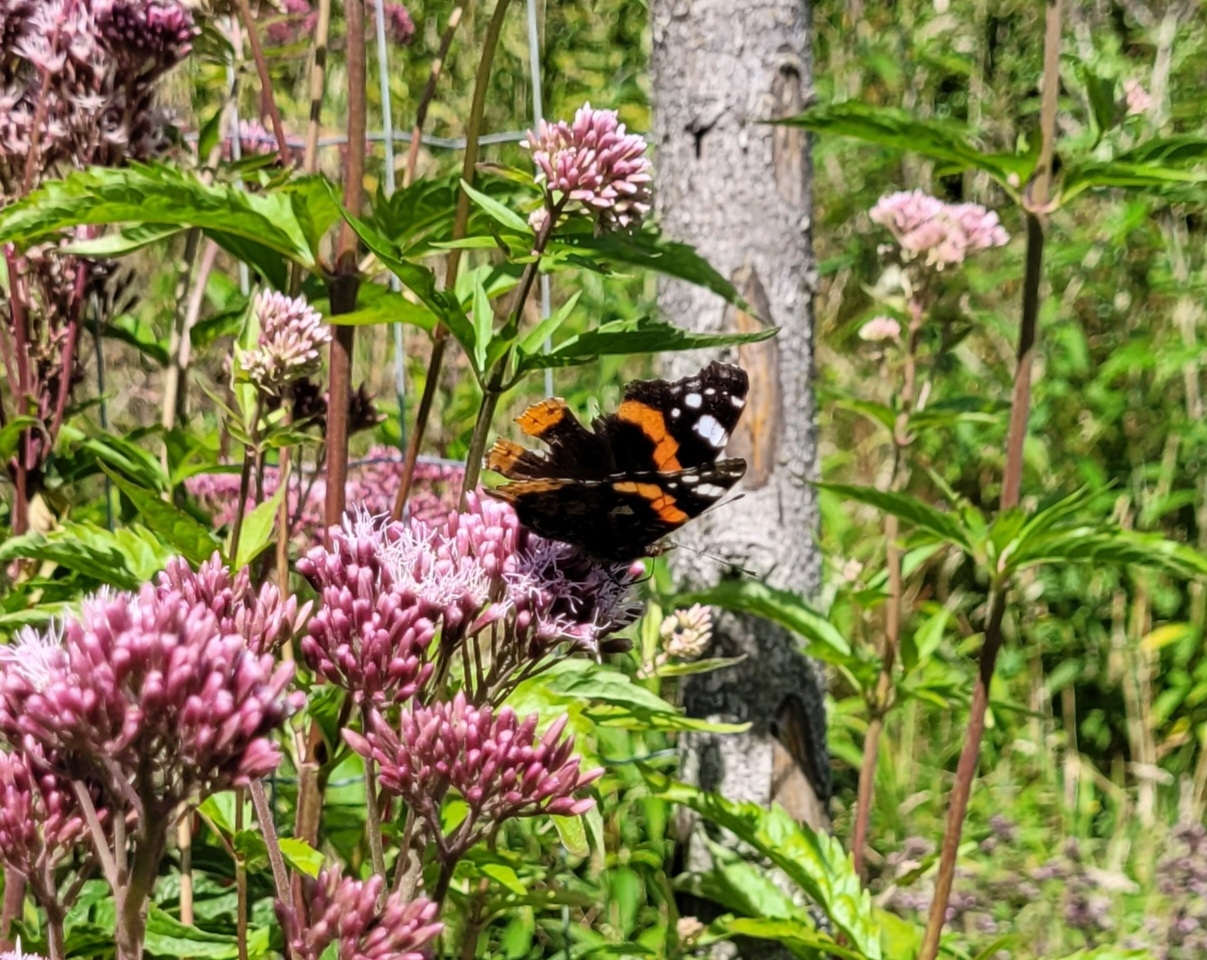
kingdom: Animalia
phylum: Arthropoda
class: Insecta
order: Lepidoptera
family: Nymphalidae
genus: Vanessa
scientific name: Vanessa atalanta
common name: Admiral
